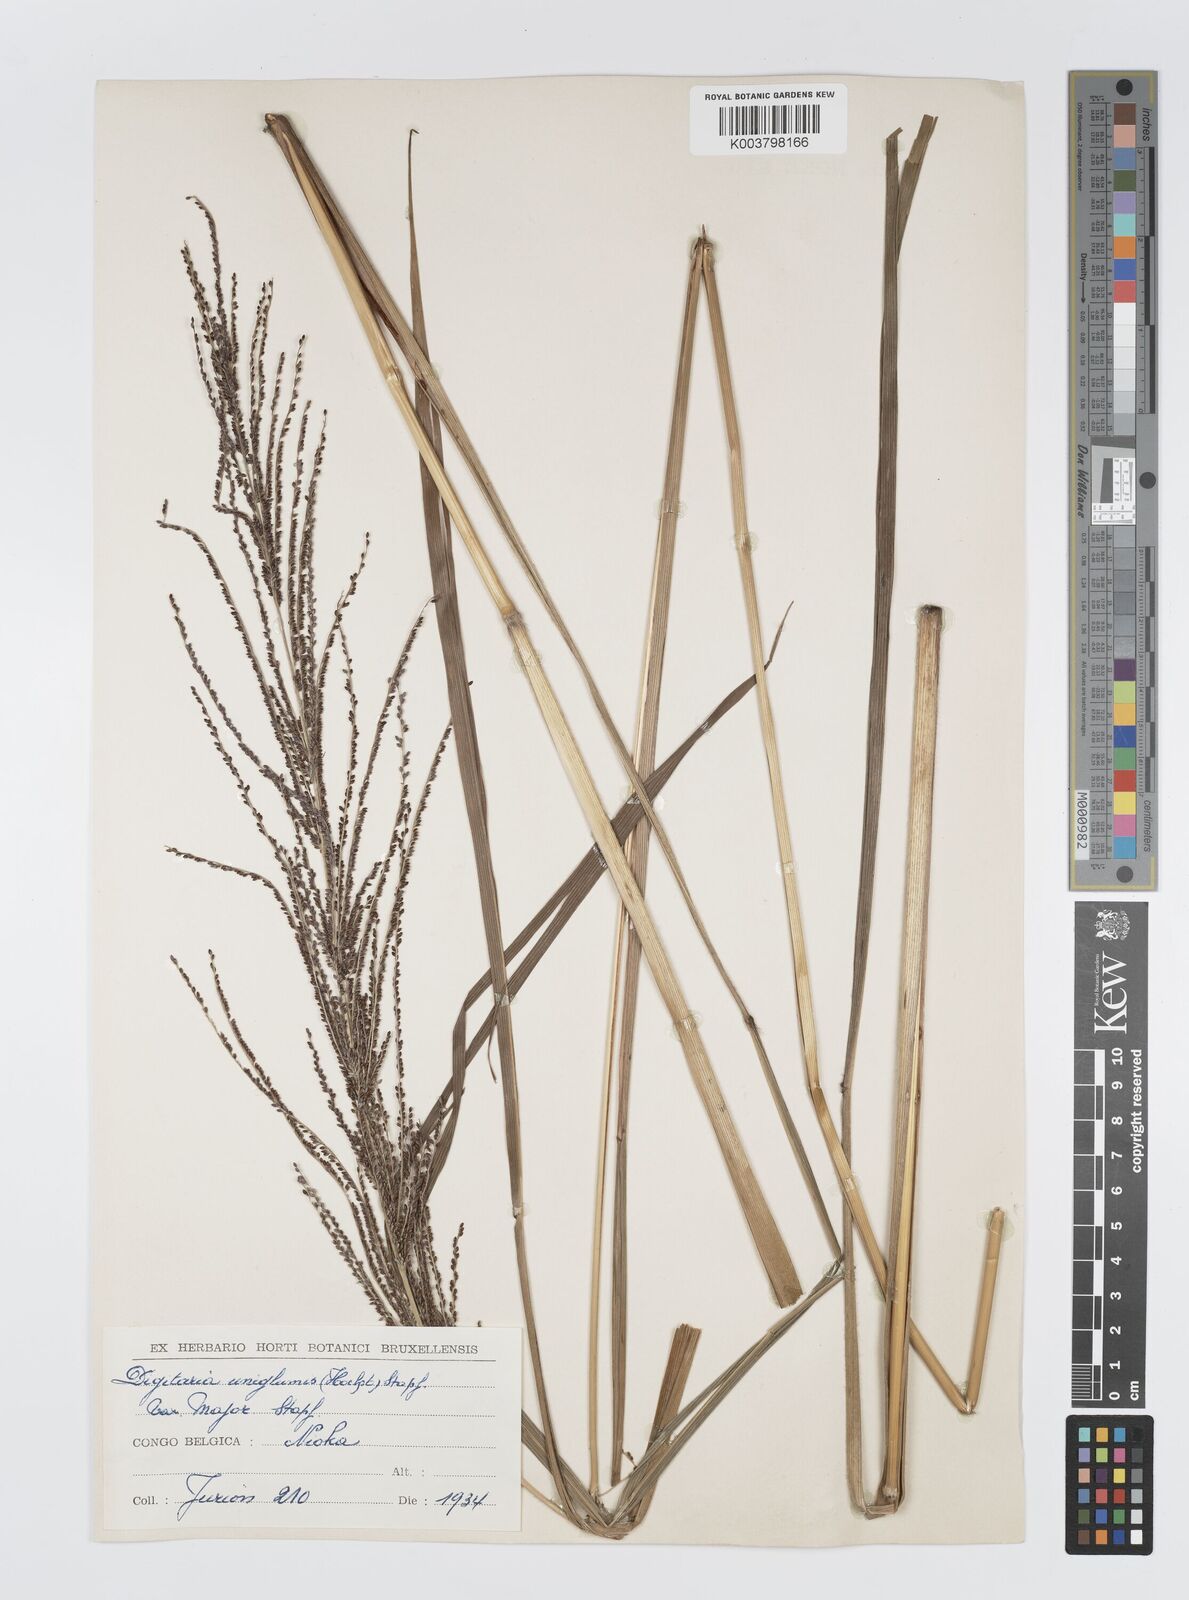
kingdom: Plantae
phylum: Tracheophyta
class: Liliopsida
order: Poales
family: Poaceae
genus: Digitaria
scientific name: Digitaria diagonalis
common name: Brown-seed finger grass
